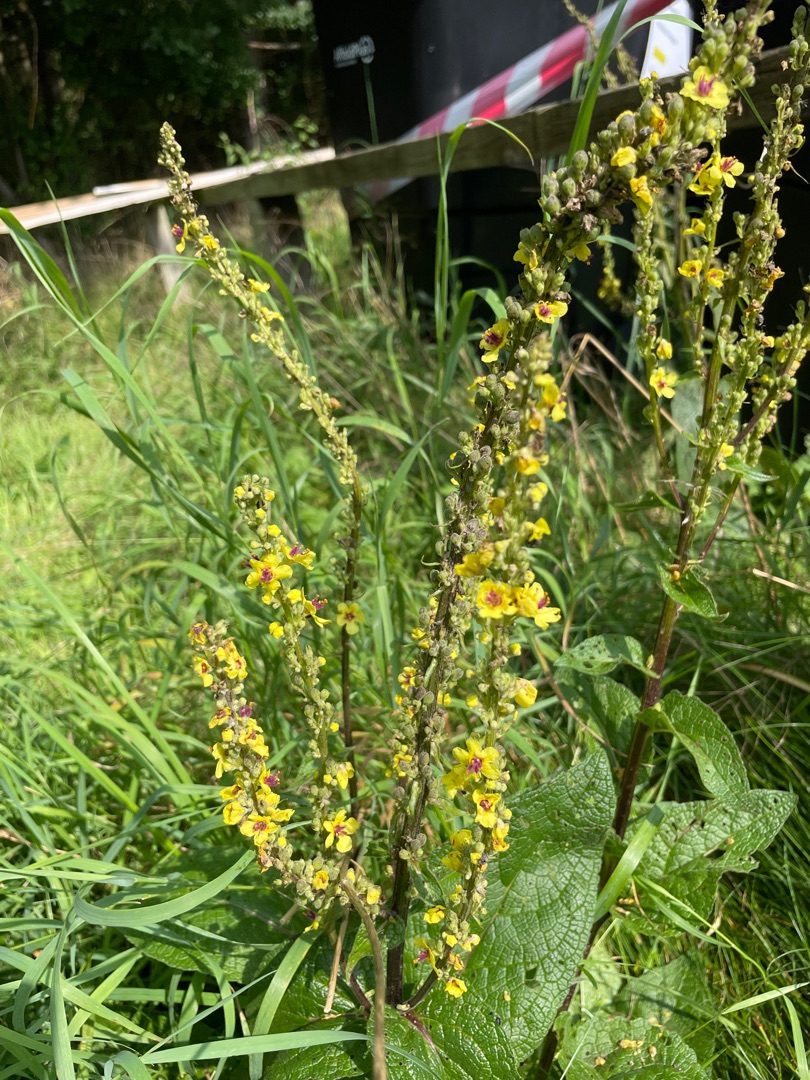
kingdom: Plantae
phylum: Tracheophyta
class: Magnoliopsida
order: Lamiales
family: Scrophulariaceae
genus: Verbascum
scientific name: Verbascum nigrum
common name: Mørk kongelys
